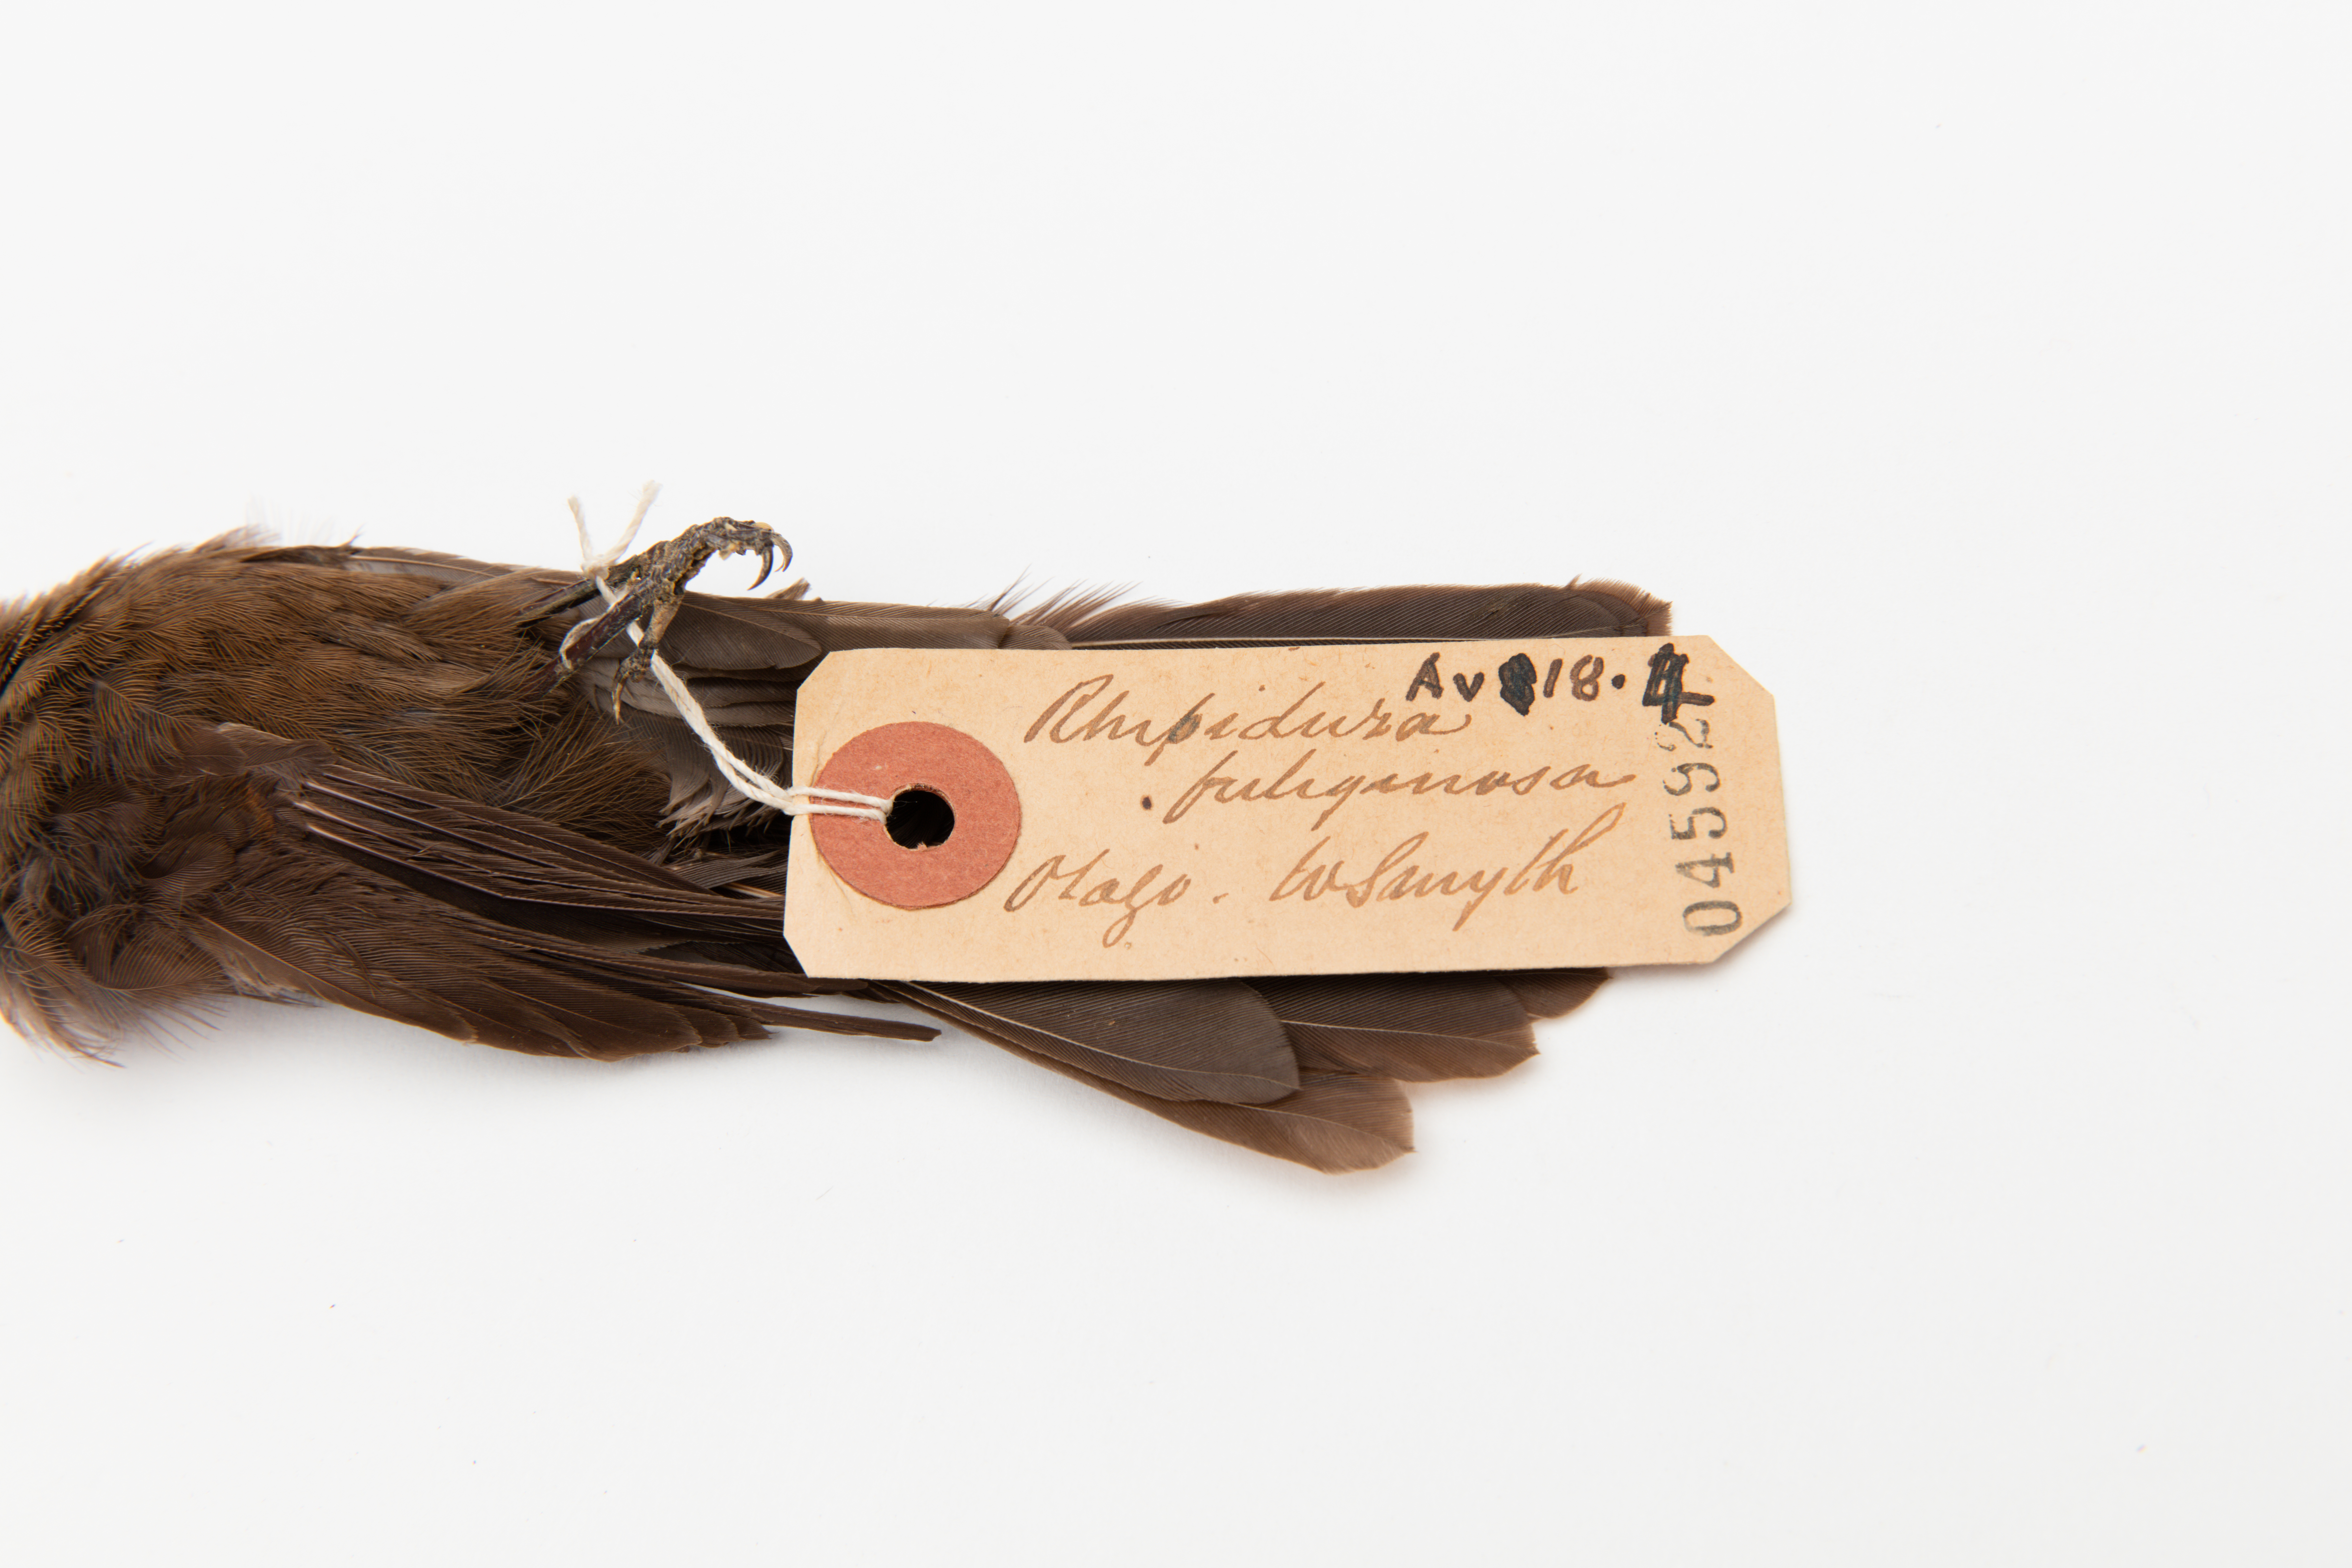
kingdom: Animalia
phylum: Chordata
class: Aves
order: Passeriformes
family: Rhipiduridae
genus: Rhipidura
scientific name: Rhipidura fuliginosa
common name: New zealand fantail
